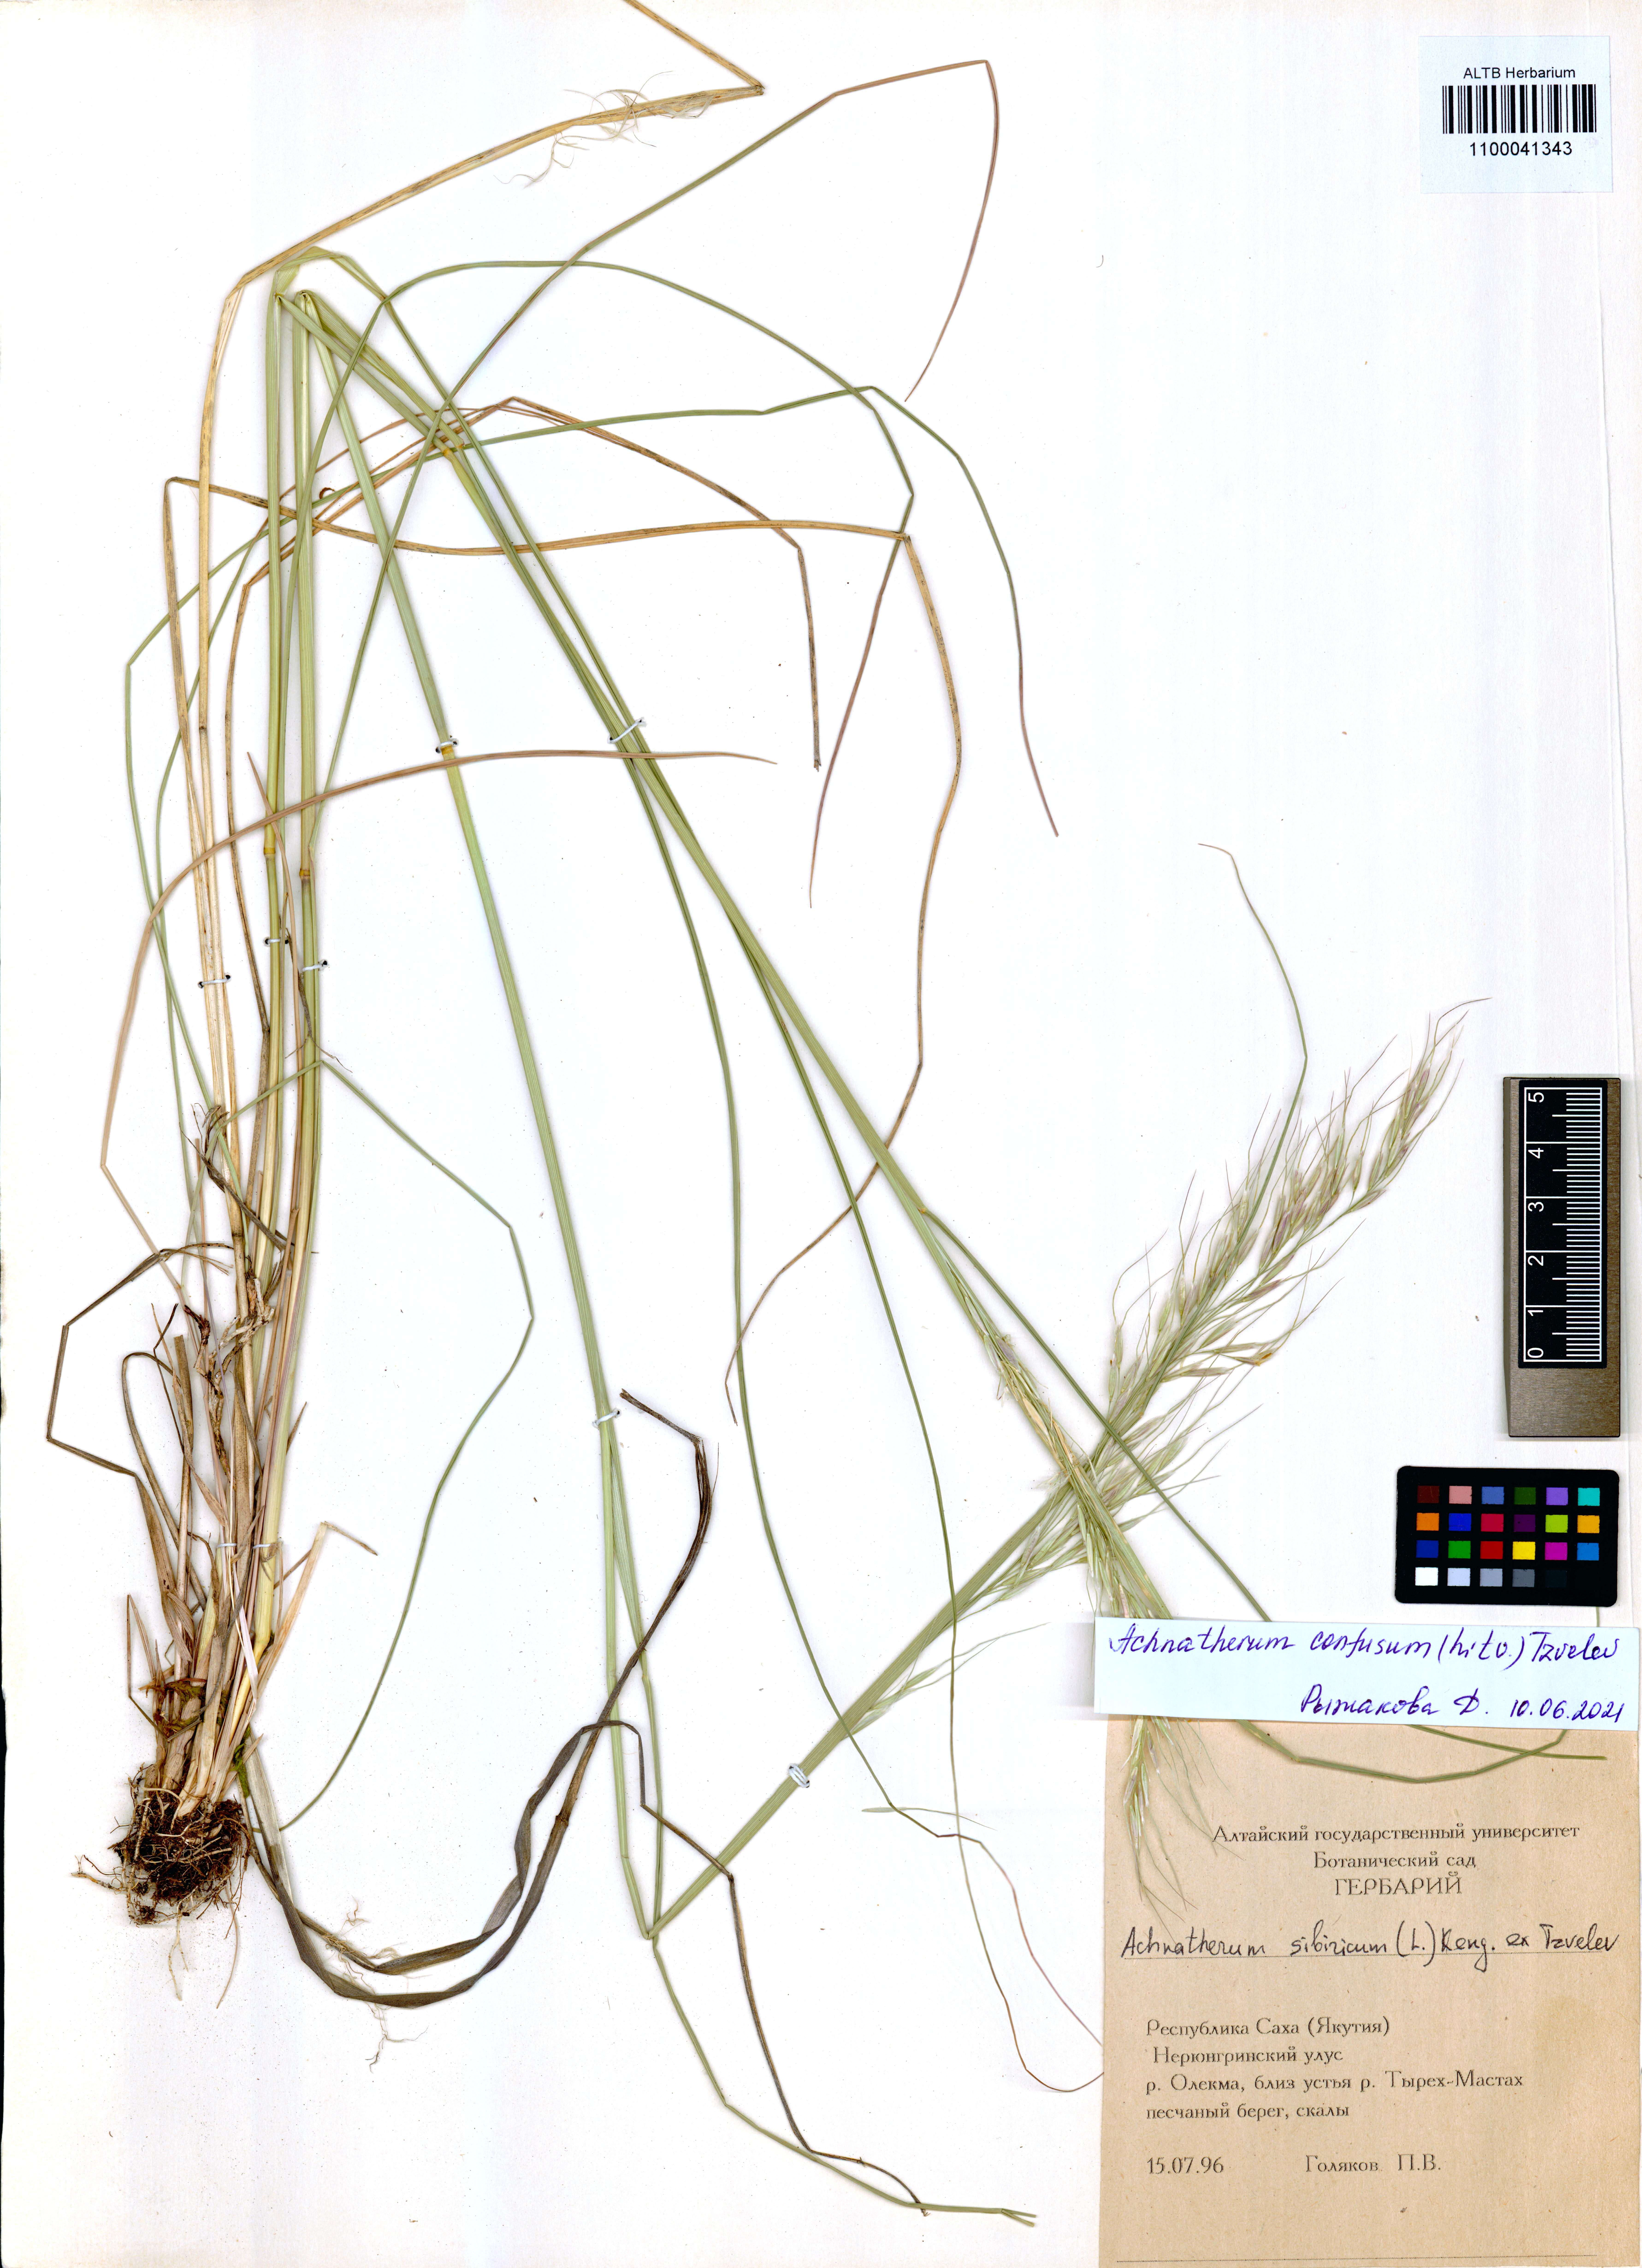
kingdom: Plantae
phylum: Tracheophyta
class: Liliopsida
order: Poales
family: Poaceae
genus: Achnatherum
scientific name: Achnatherum confusum
